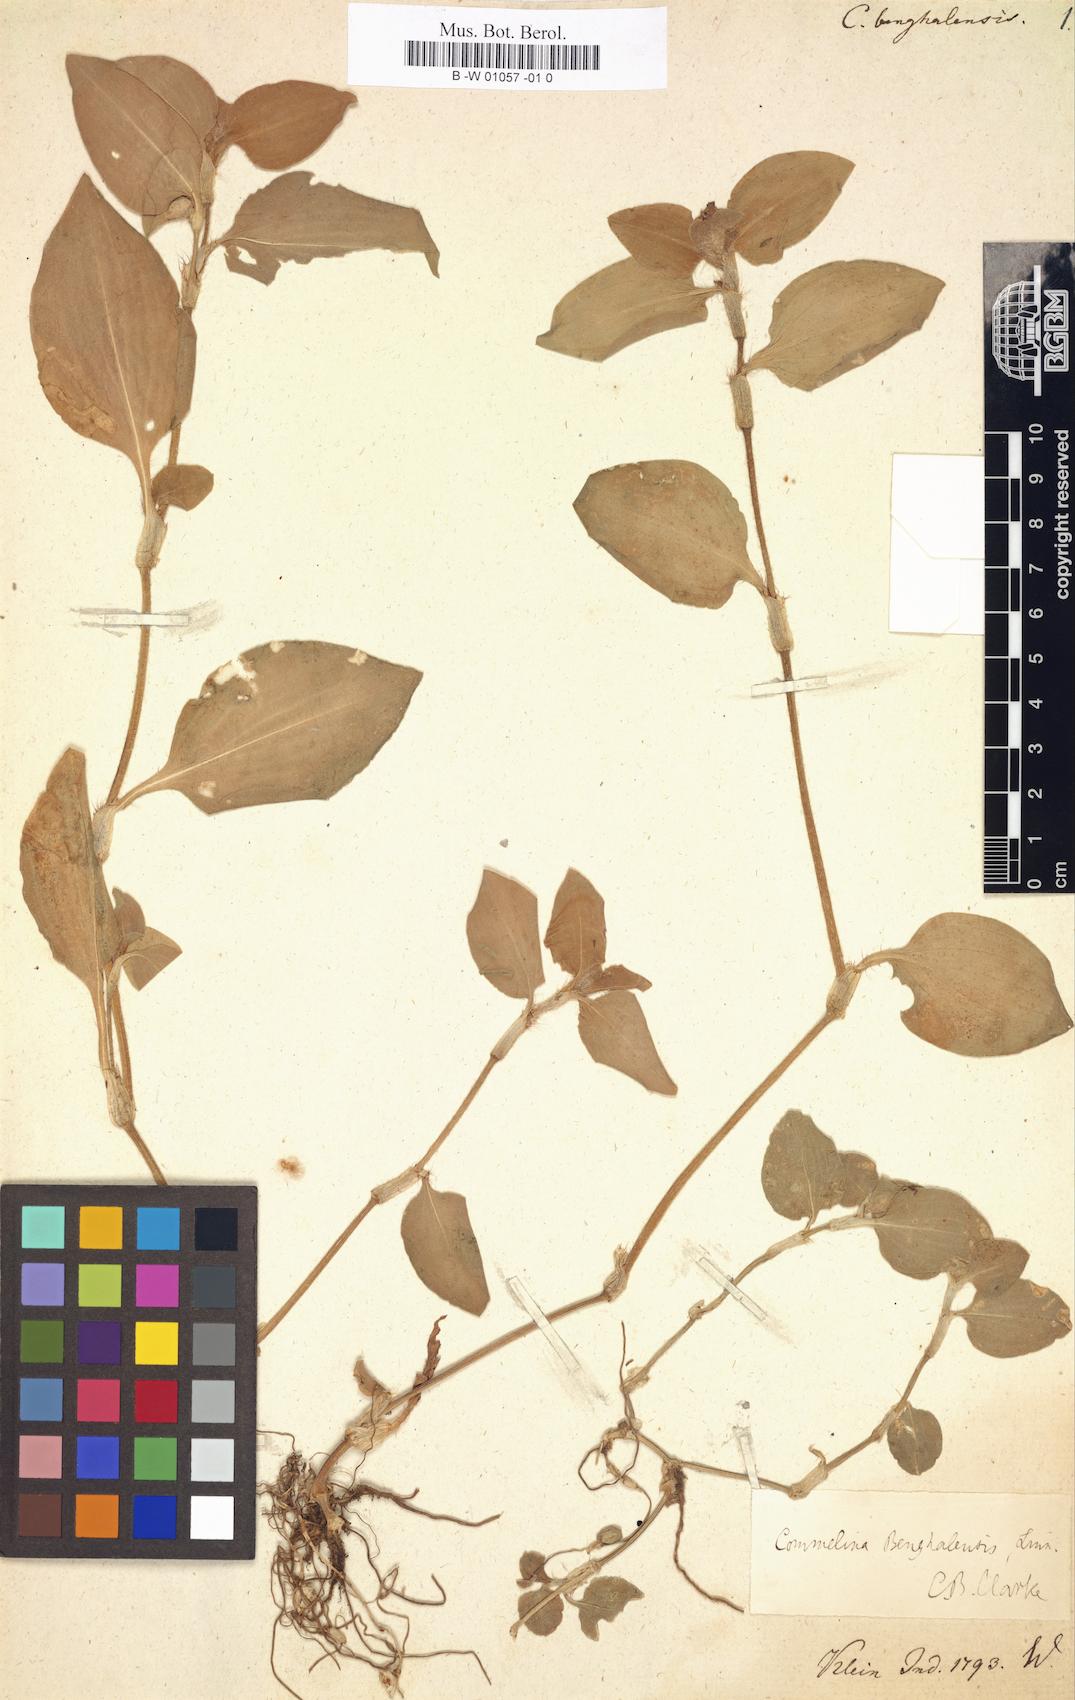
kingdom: Plantae
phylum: Tracheophyta
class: Liliopsida
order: Commelinales
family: Commelinaceae
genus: Commelina
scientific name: Commelina benghalensis
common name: Jio
